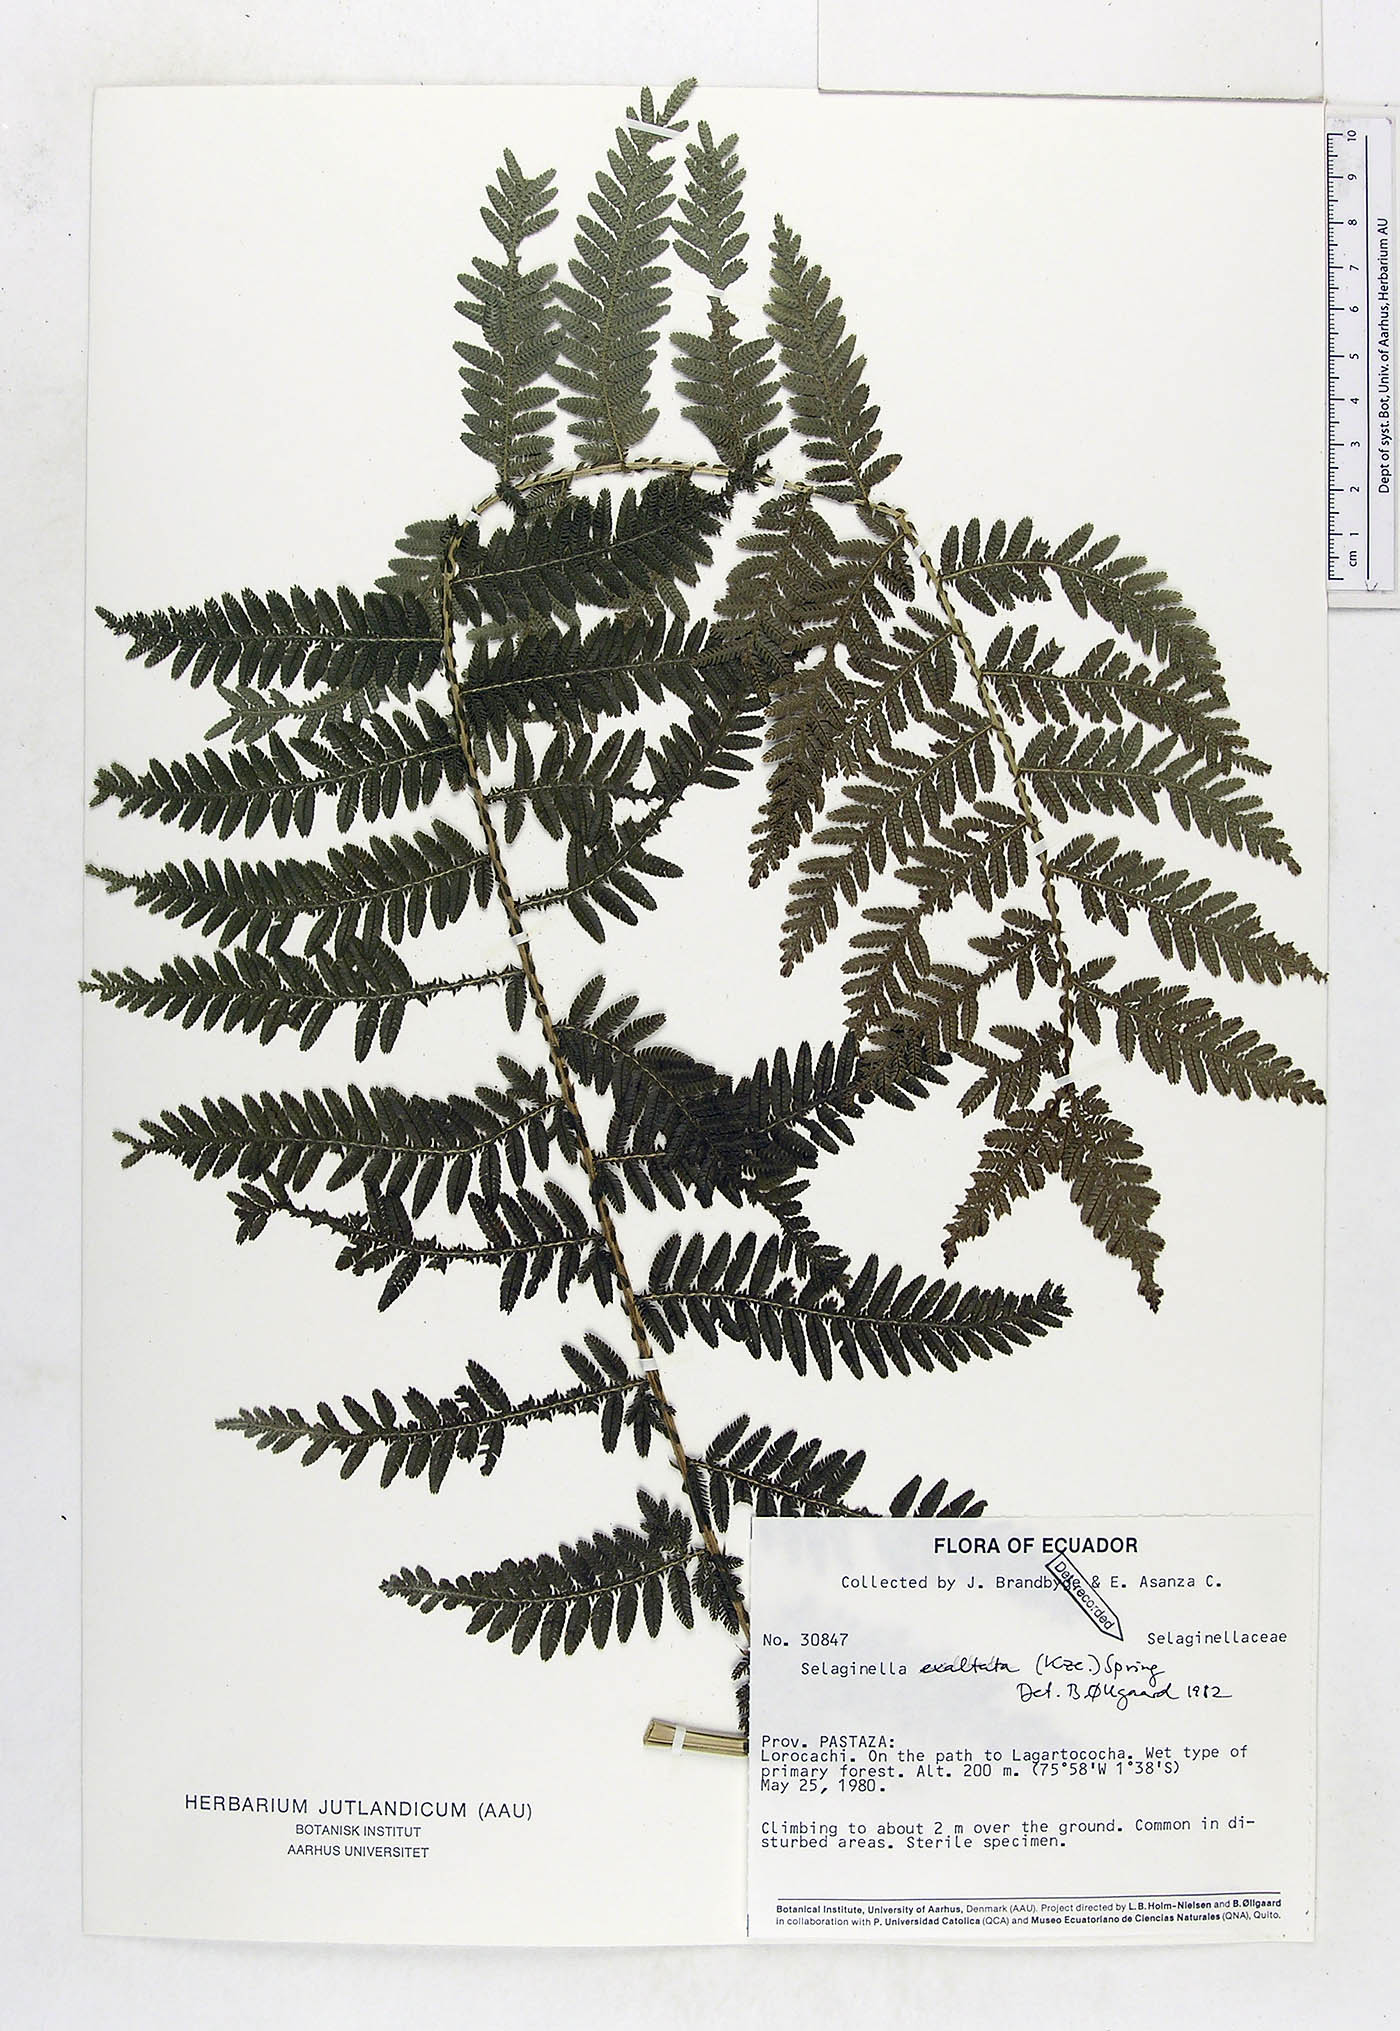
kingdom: Plantae
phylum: Tracheophyta
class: Lycopodiopsida
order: Selaginellales
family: Selaginellaceae
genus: Selaginella
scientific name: Selaginella exaltata
